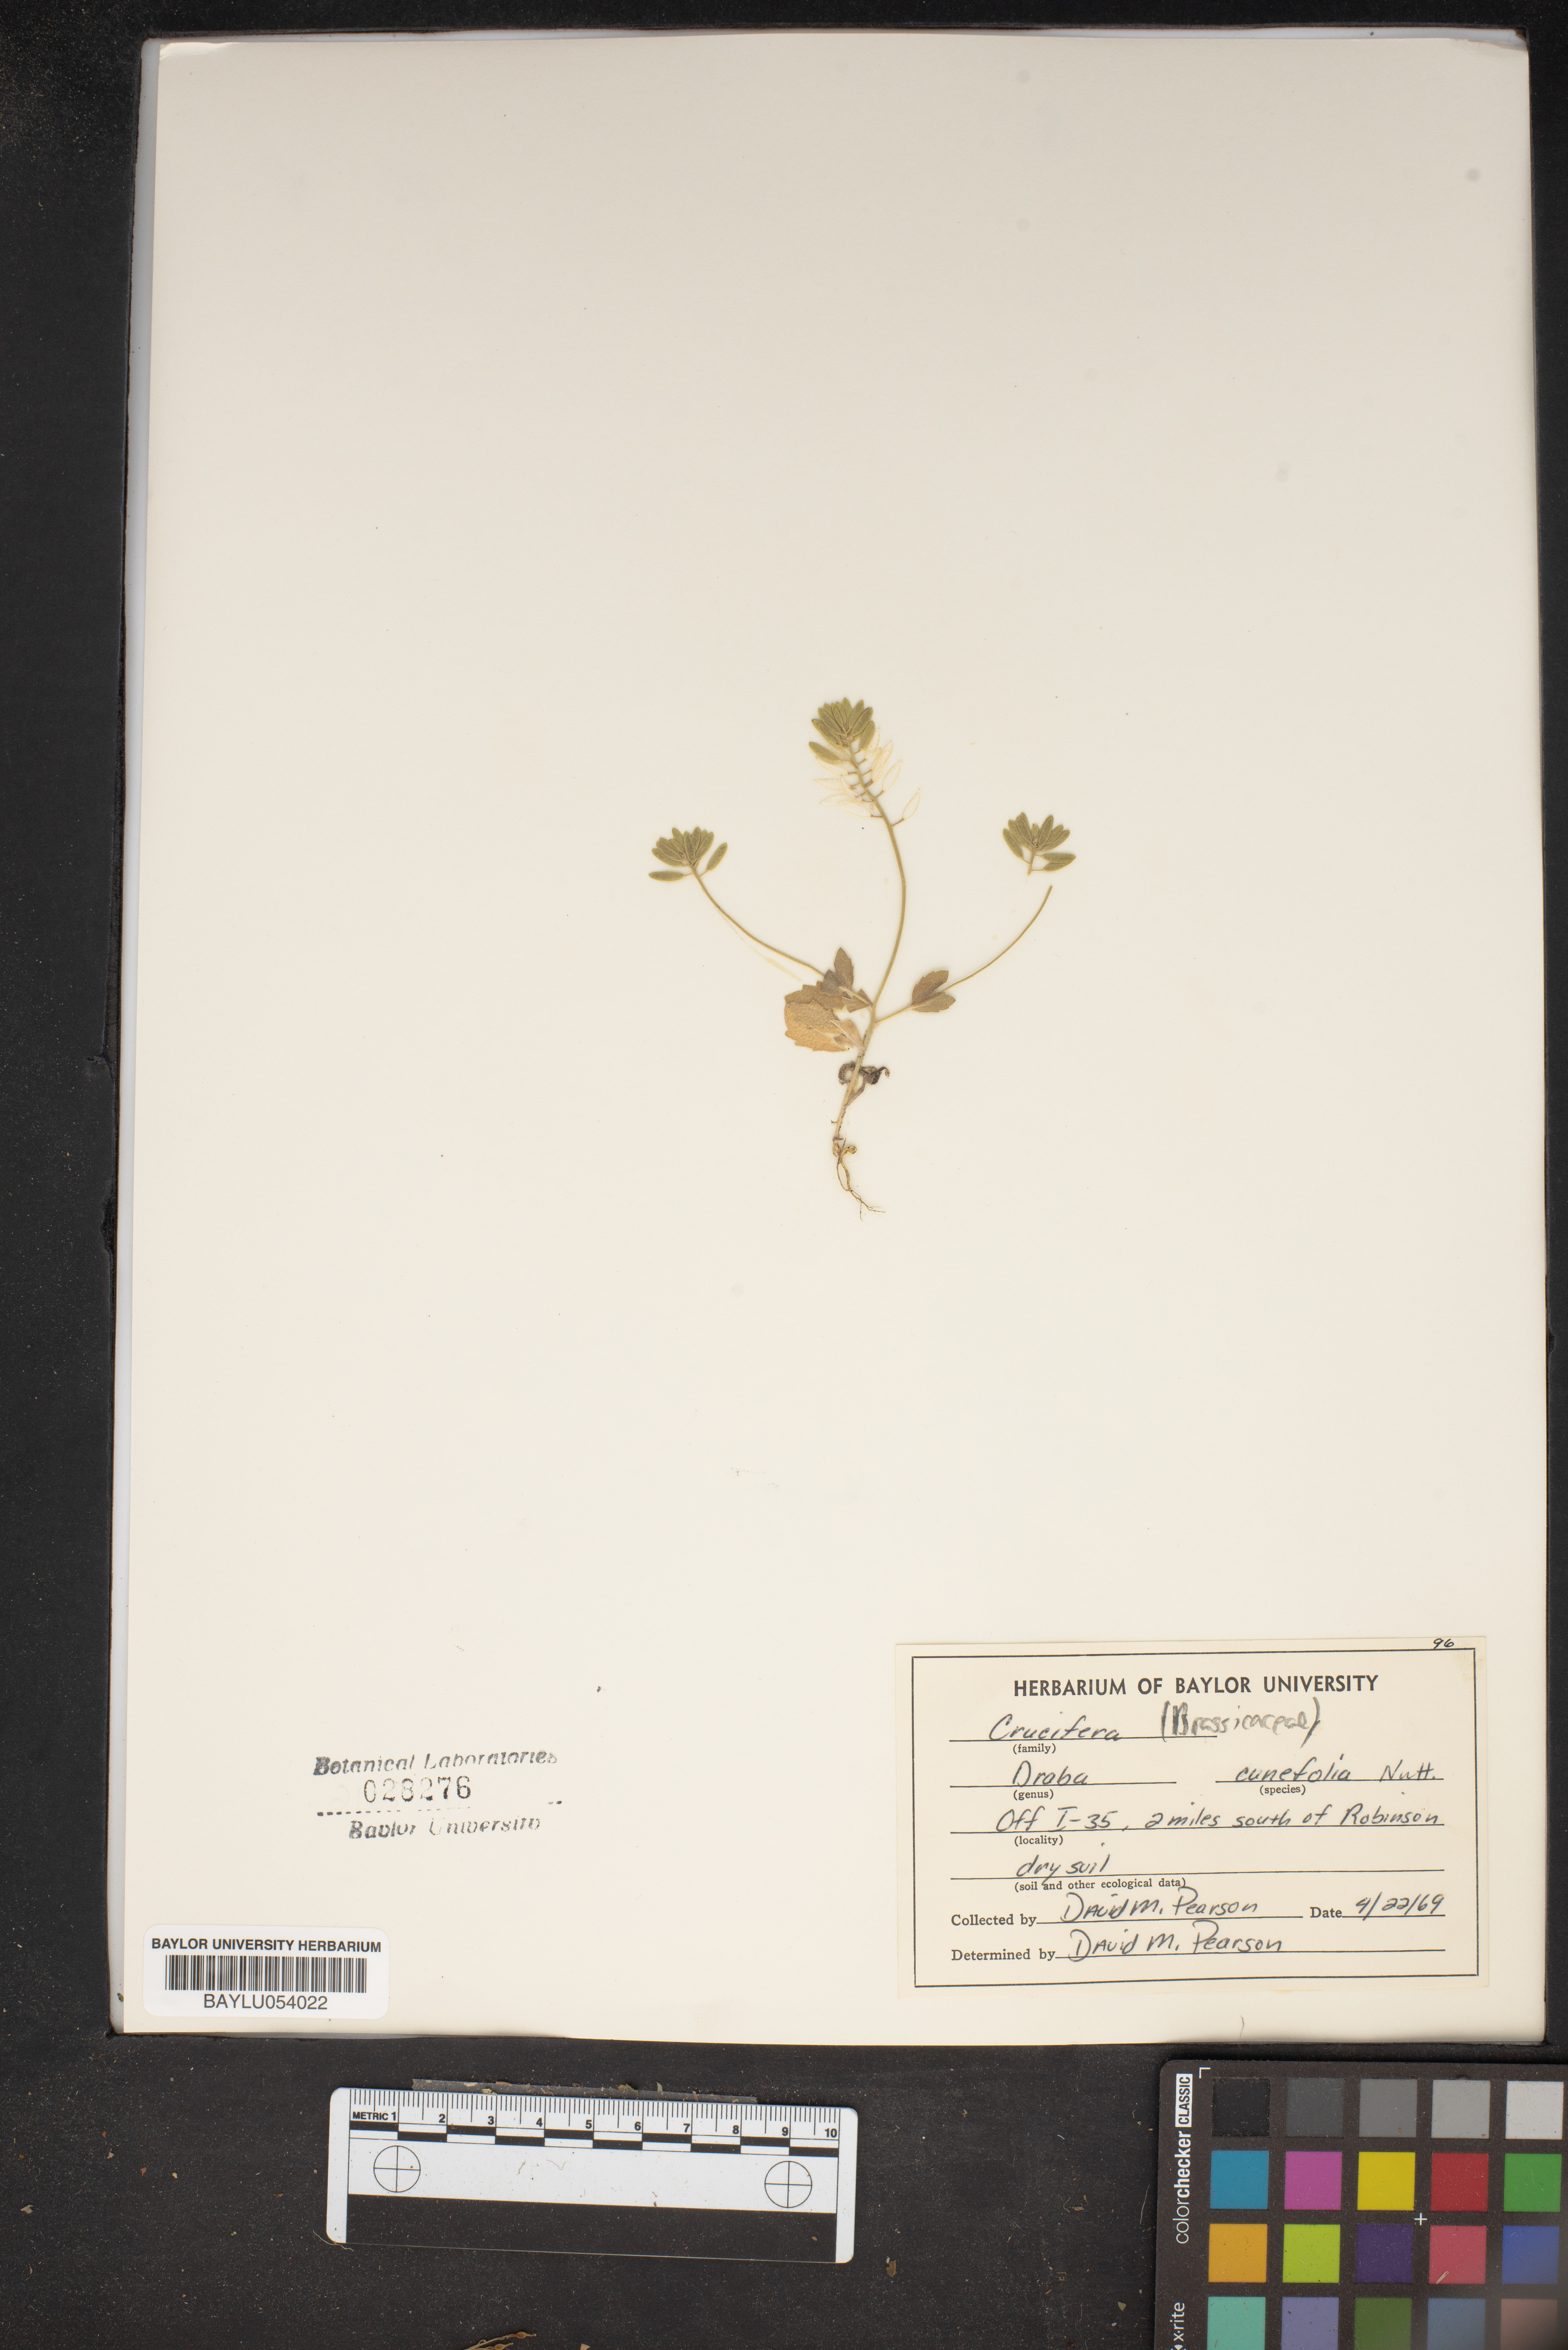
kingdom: Plantae
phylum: Tracheophyta
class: Magnoliopsida
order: Brassicales
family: Brassicaceae
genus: Tomostima
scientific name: Tomostima cuneifolia
